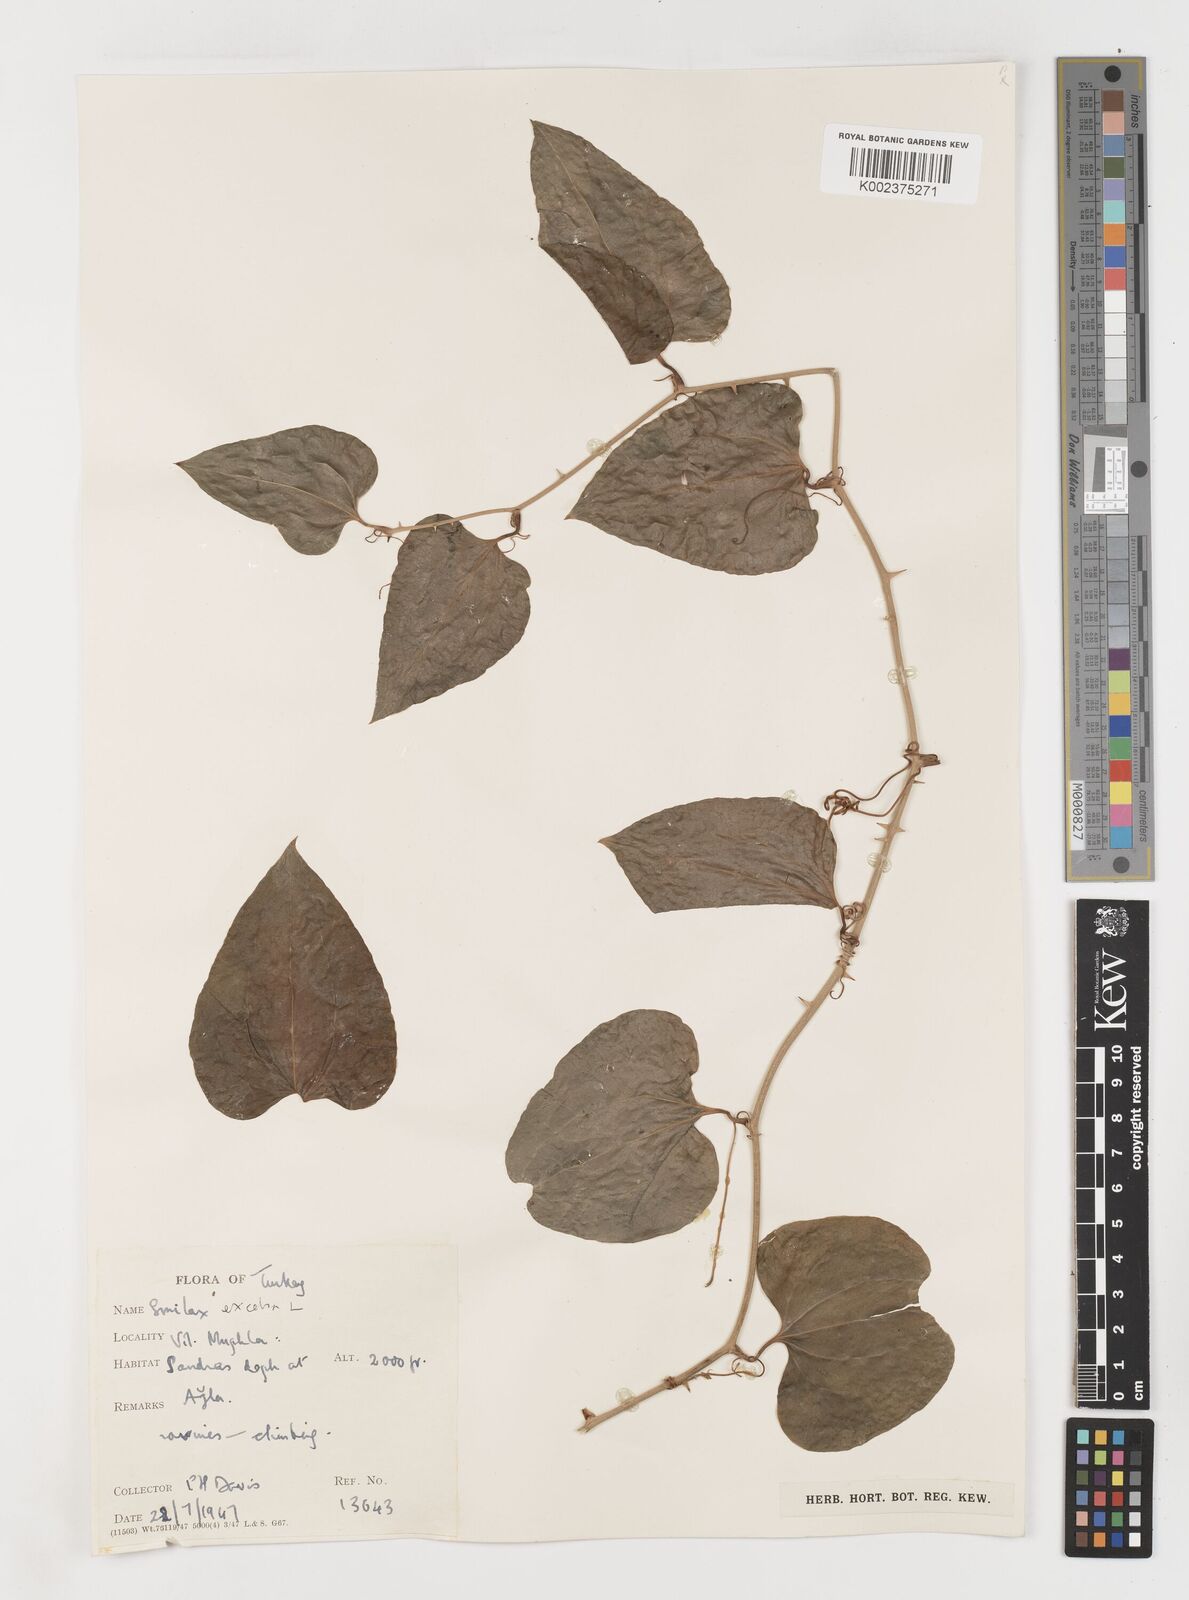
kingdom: Plantae
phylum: Tracheophyta
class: Liliopsida
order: Liliales
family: Smilacaceae
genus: Smilax
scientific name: Smilax excelsa
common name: Larger smilax
